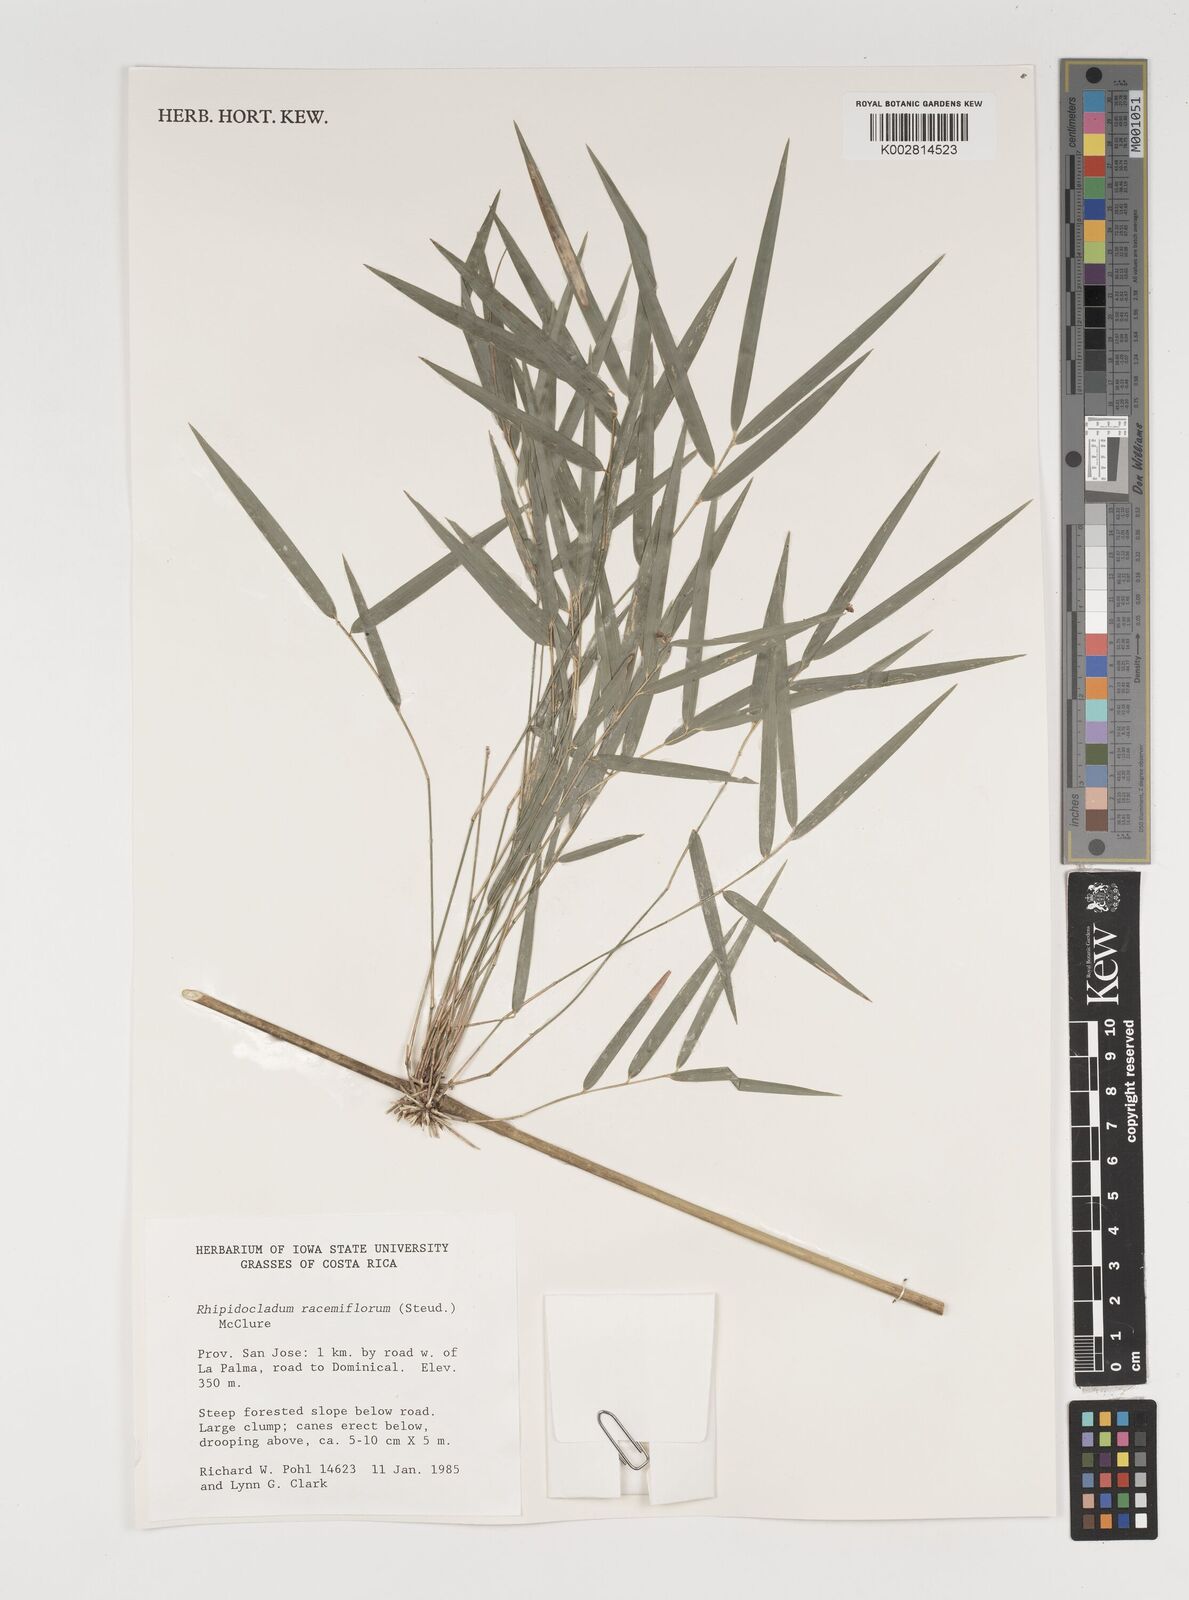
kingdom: Plantae
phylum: Tracheophyta
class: Liliopsida
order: Poales
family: Poaceae
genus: Rhipidocladum
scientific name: Rhipidocladum racemiflorum
